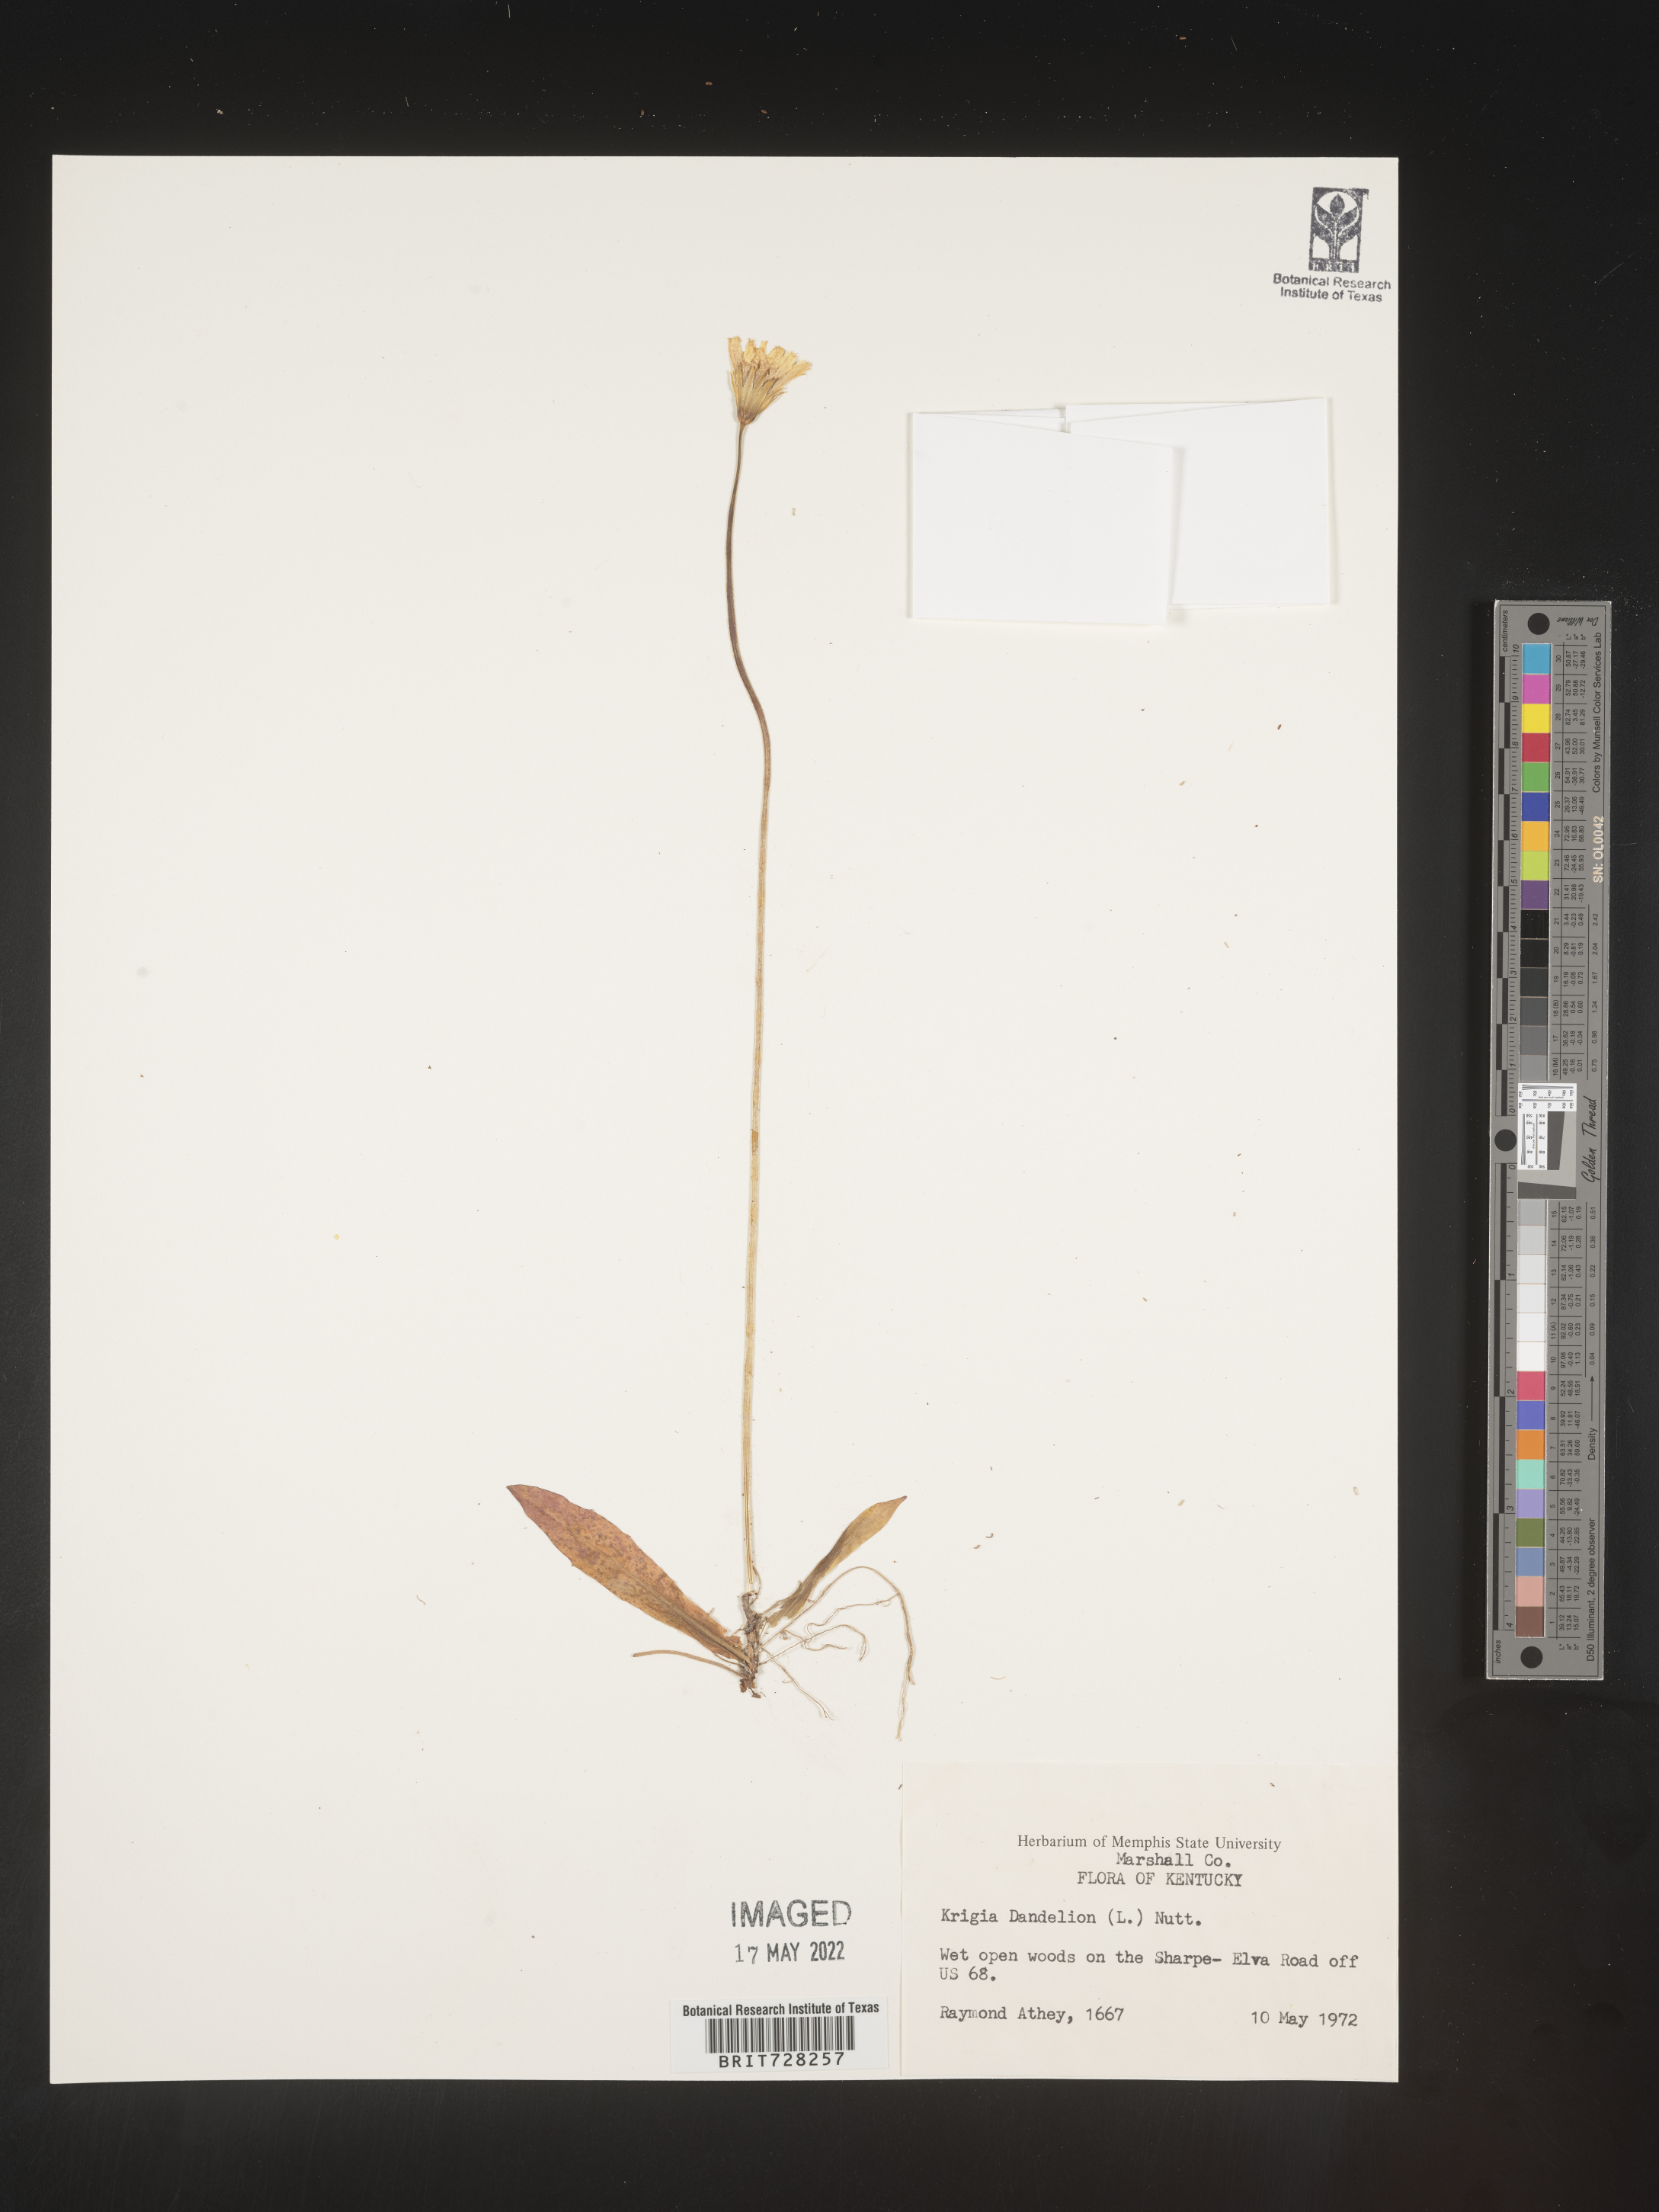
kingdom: Plantae
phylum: Tracheophyta
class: Magnoliopsida
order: Asterales
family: Asteraceae
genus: Krigia
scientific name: Krigia dandelion
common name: Colonial dwarf-dandelion
